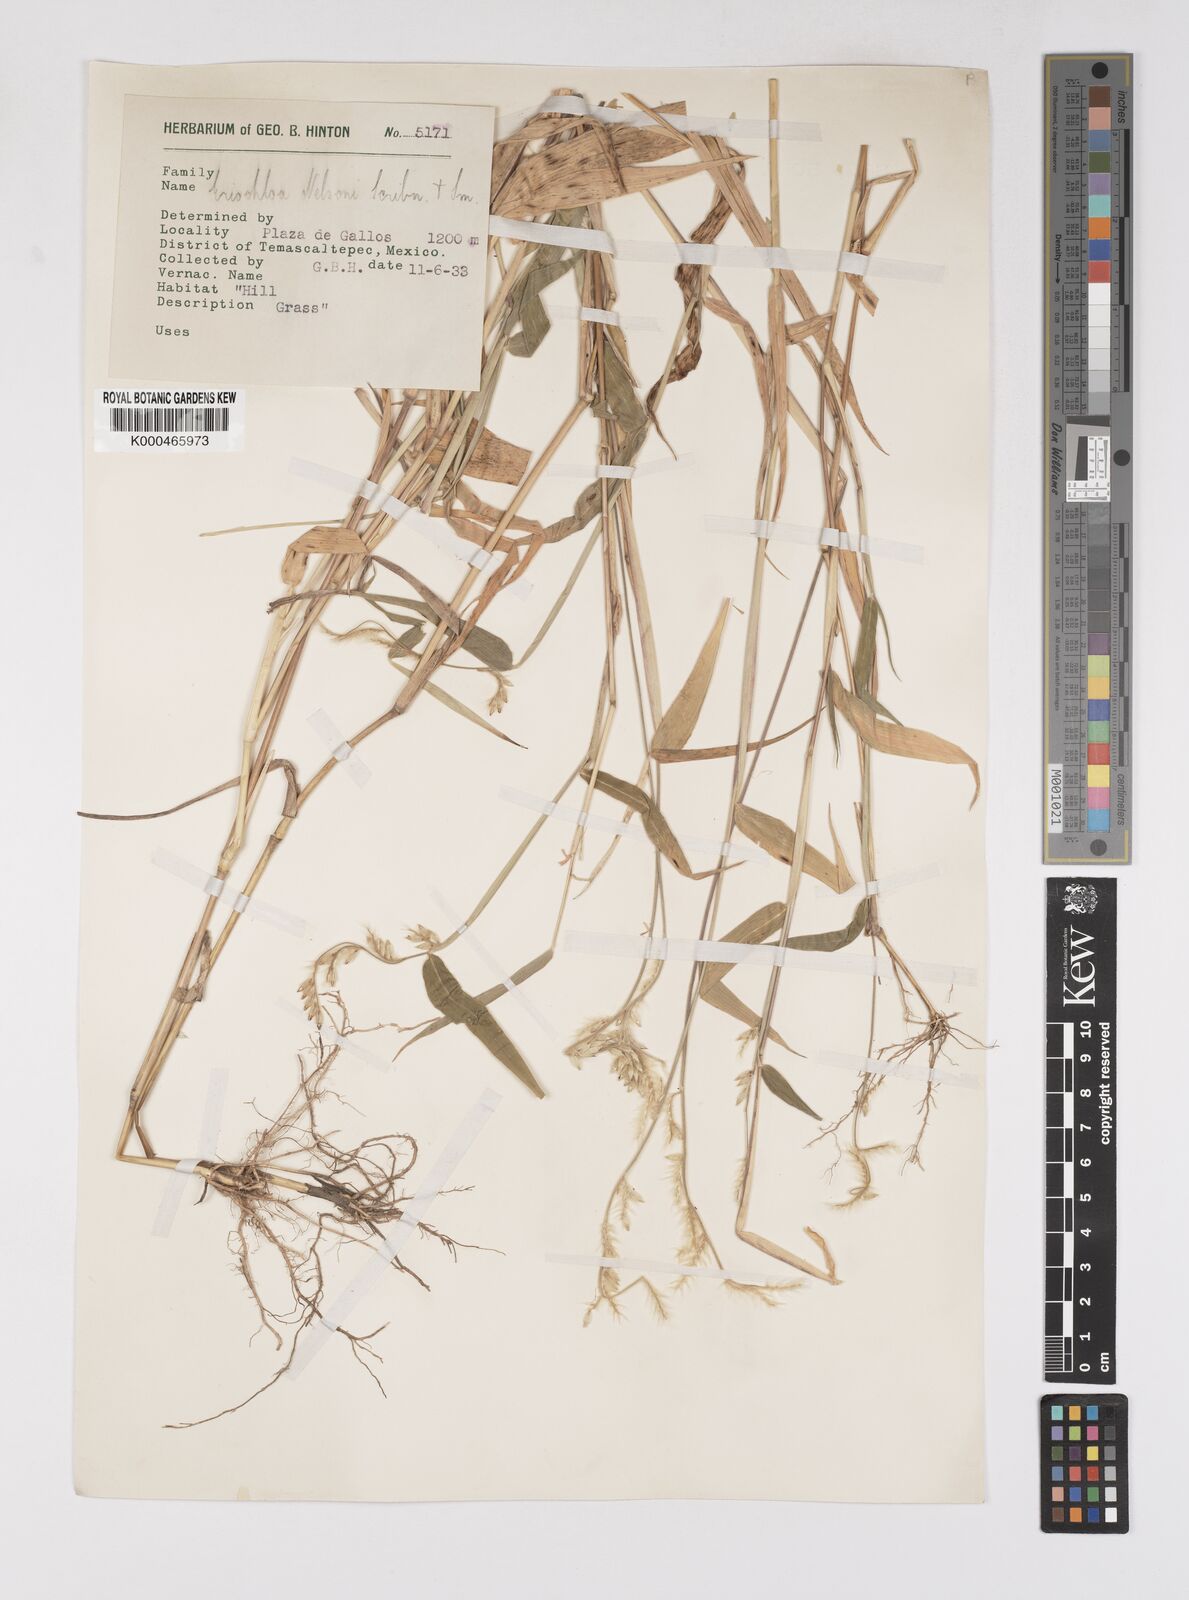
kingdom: Plantae
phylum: Tracheophyta
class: Liliopsida
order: Poales
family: Poaceae
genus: Eriochloa
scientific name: Eriochloa nelsonii
